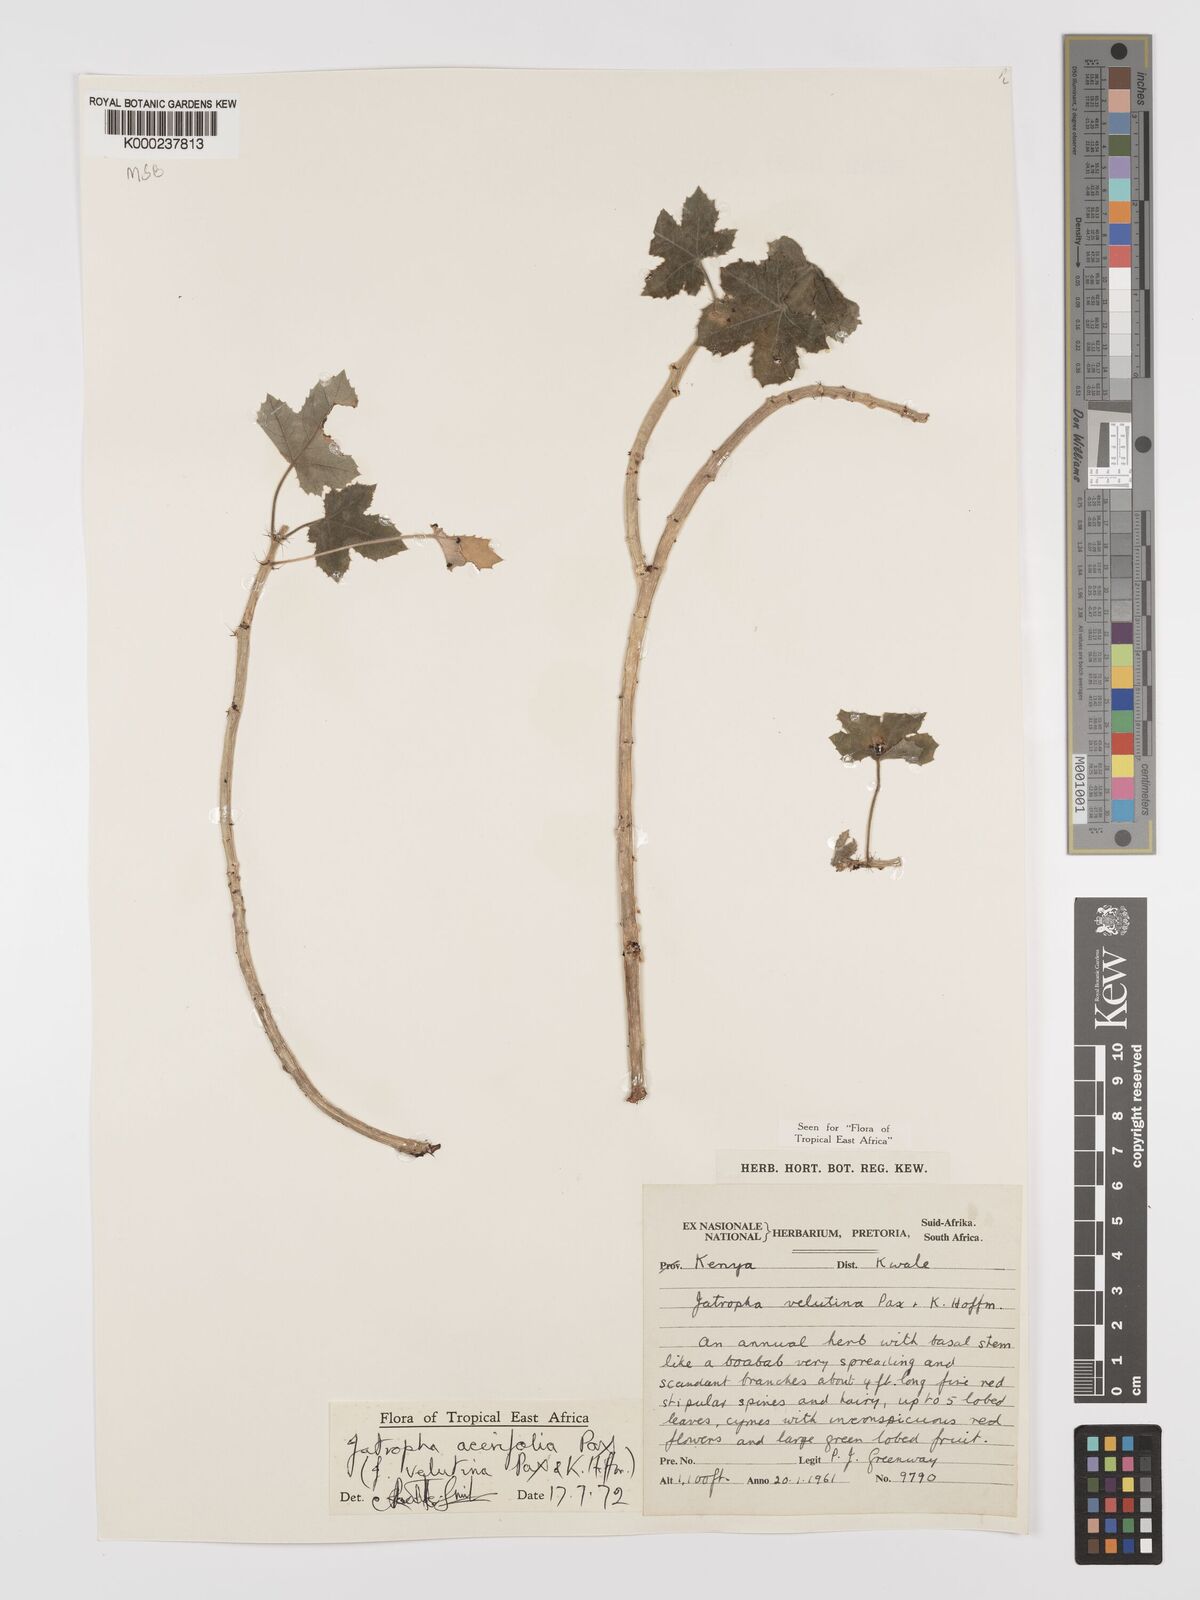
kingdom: Plantae
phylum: Tracheophyta
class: Magnoliopsida
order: Malpighiales
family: Euphorbiaceae
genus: Jatropha
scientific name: Jatropha velutina
